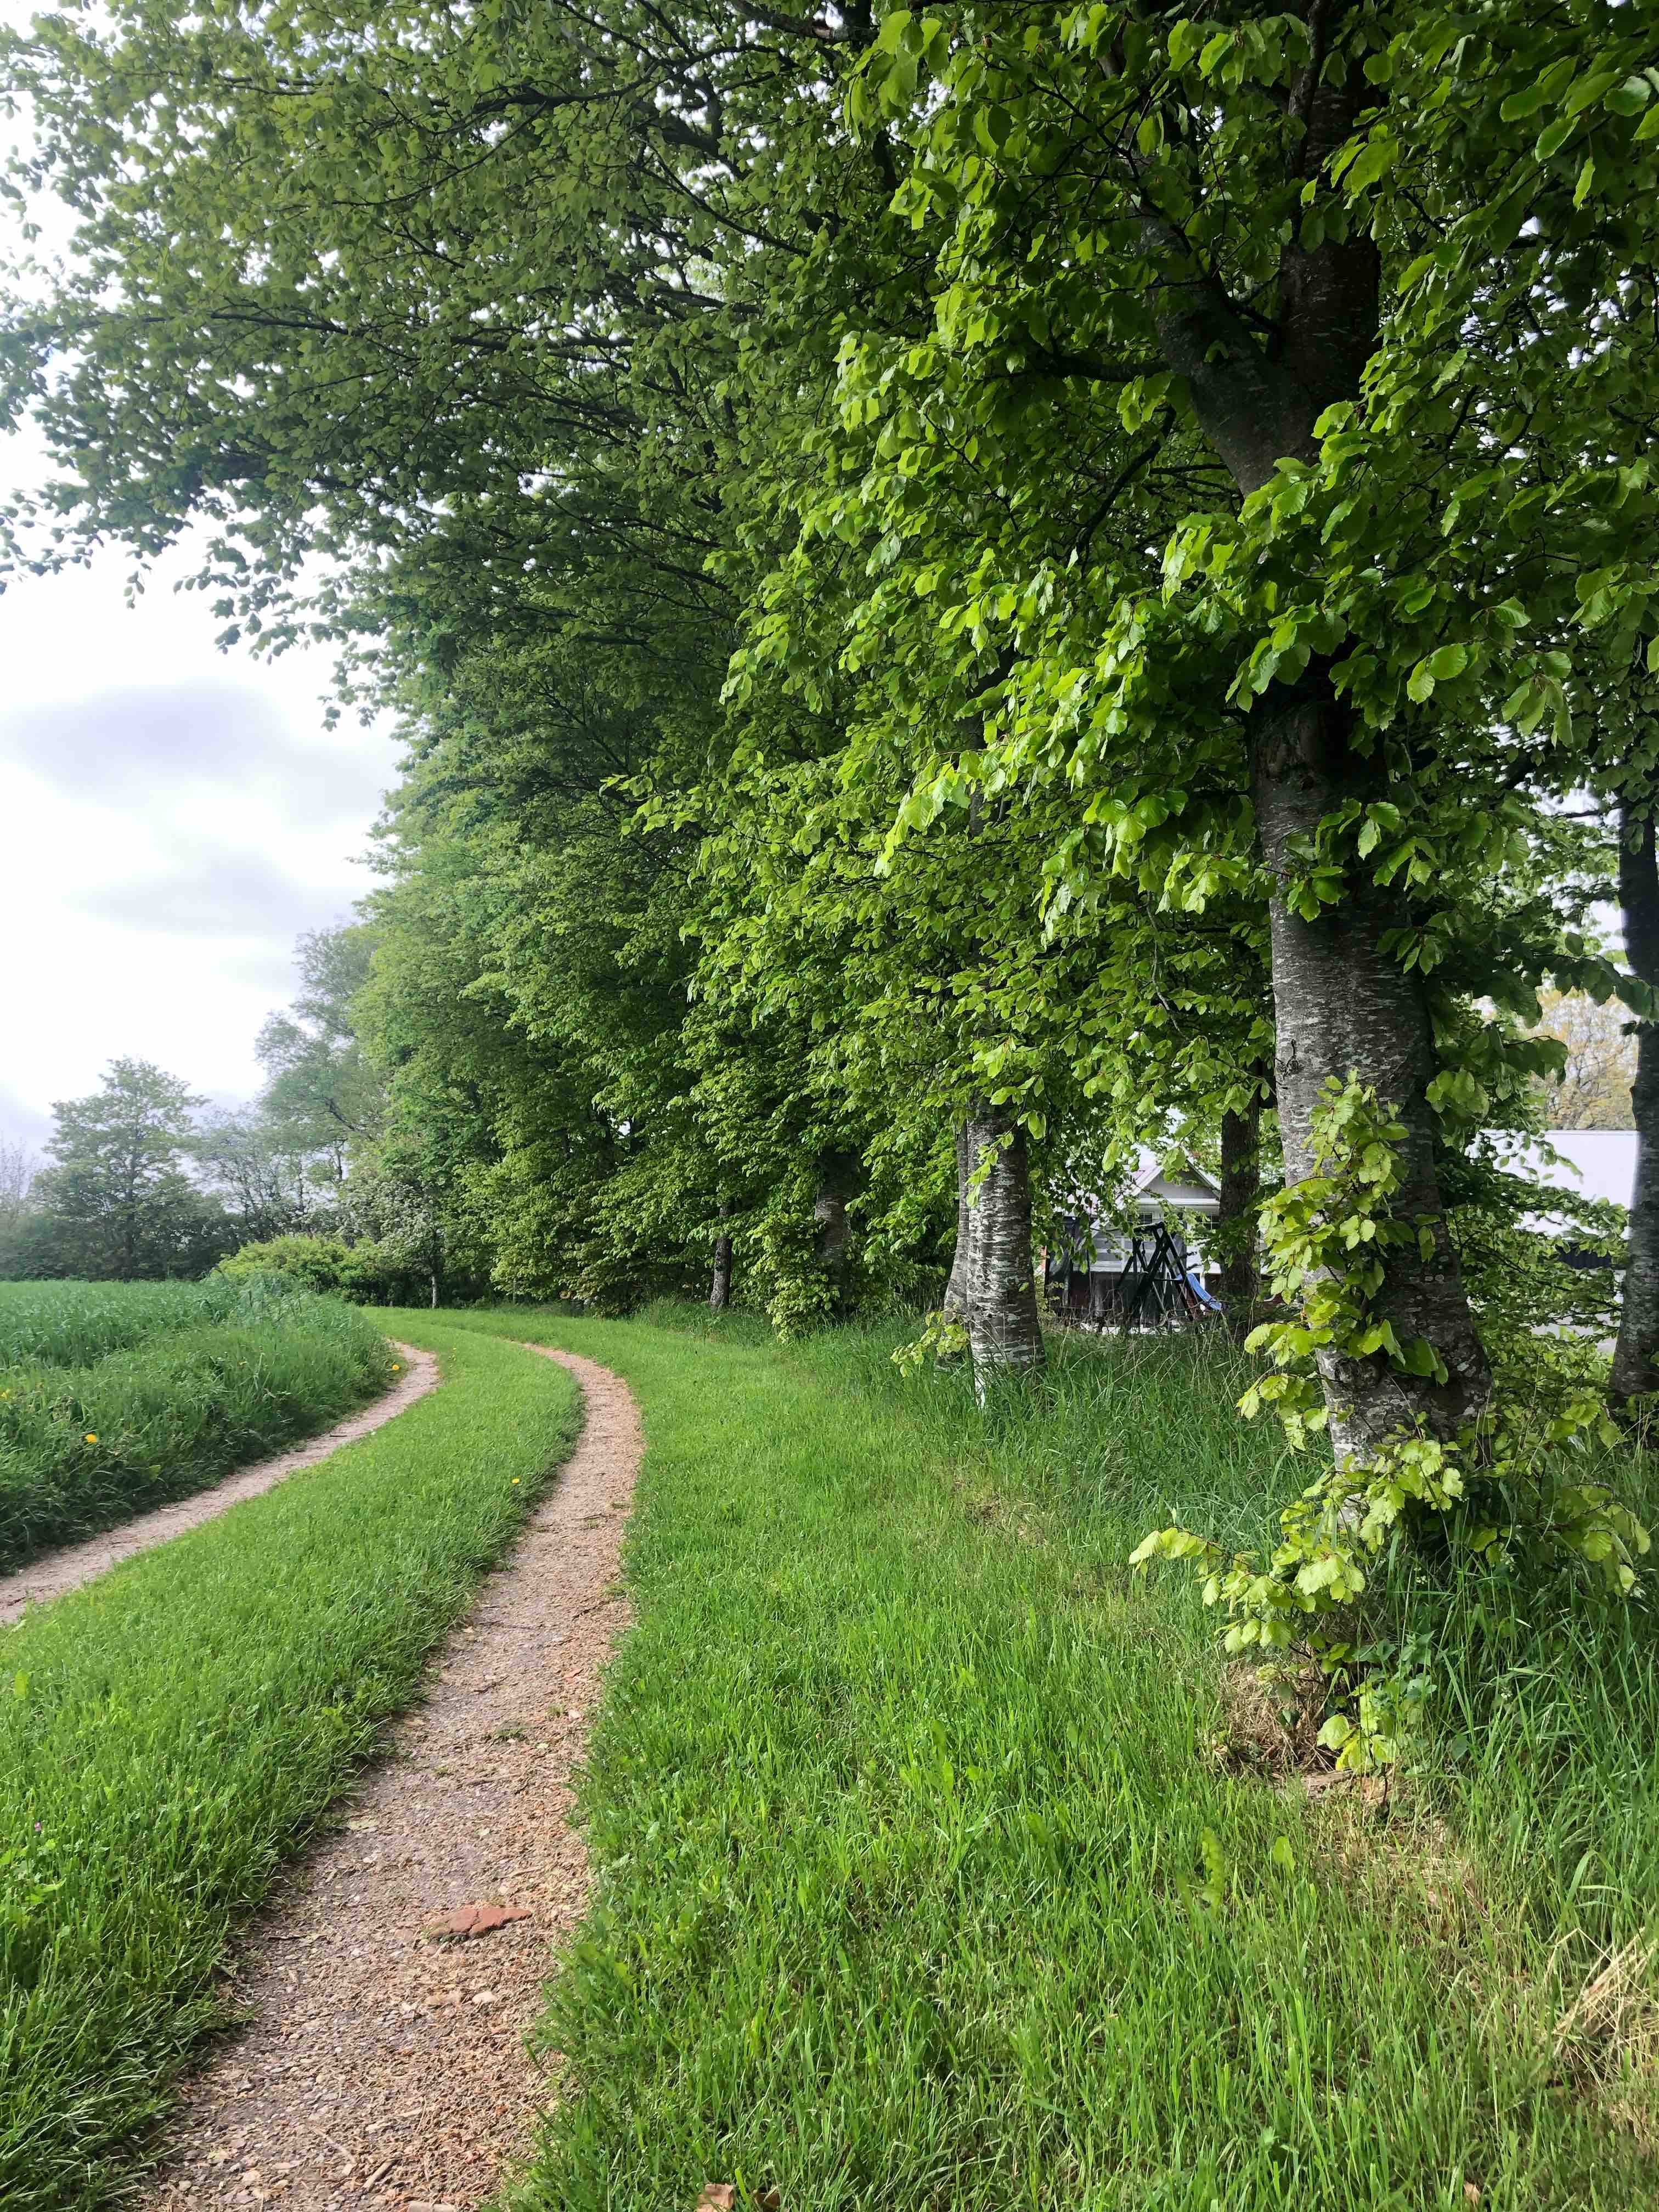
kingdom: Fungi
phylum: Basidiomycota
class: Agaricomycetes
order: Agaricales
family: Strophariaceae
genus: Agrocybe
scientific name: Agrocybe praecox
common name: tidlig agerhat
